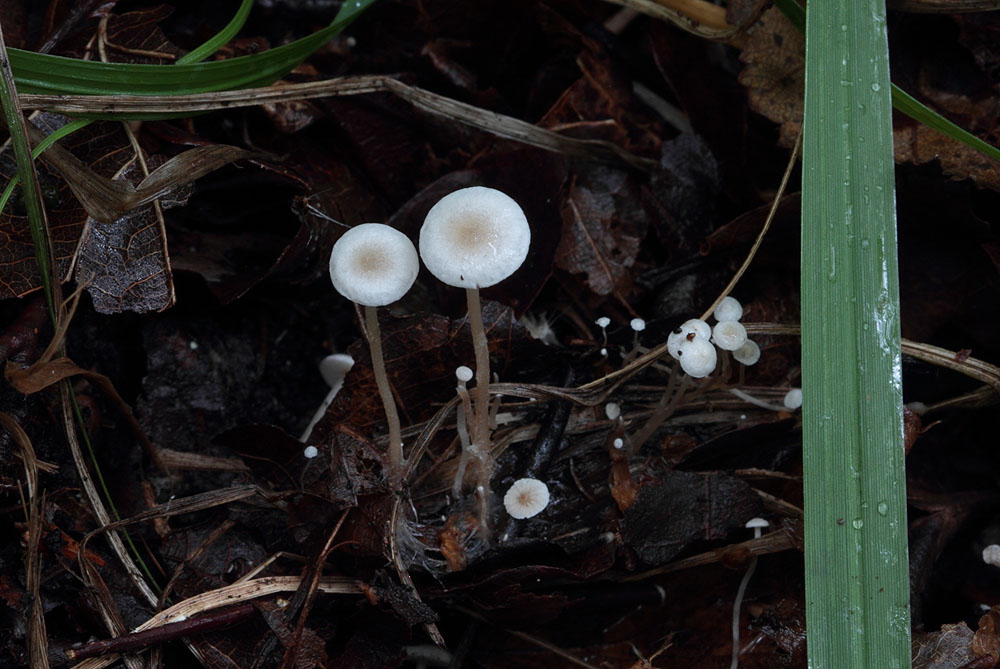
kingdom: Fungi
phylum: Basidiomycota
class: Agaricomycetes
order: Agaricales
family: Tricholomataceae
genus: Collybia
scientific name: Collybia cirrhata
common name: silke-lighat
